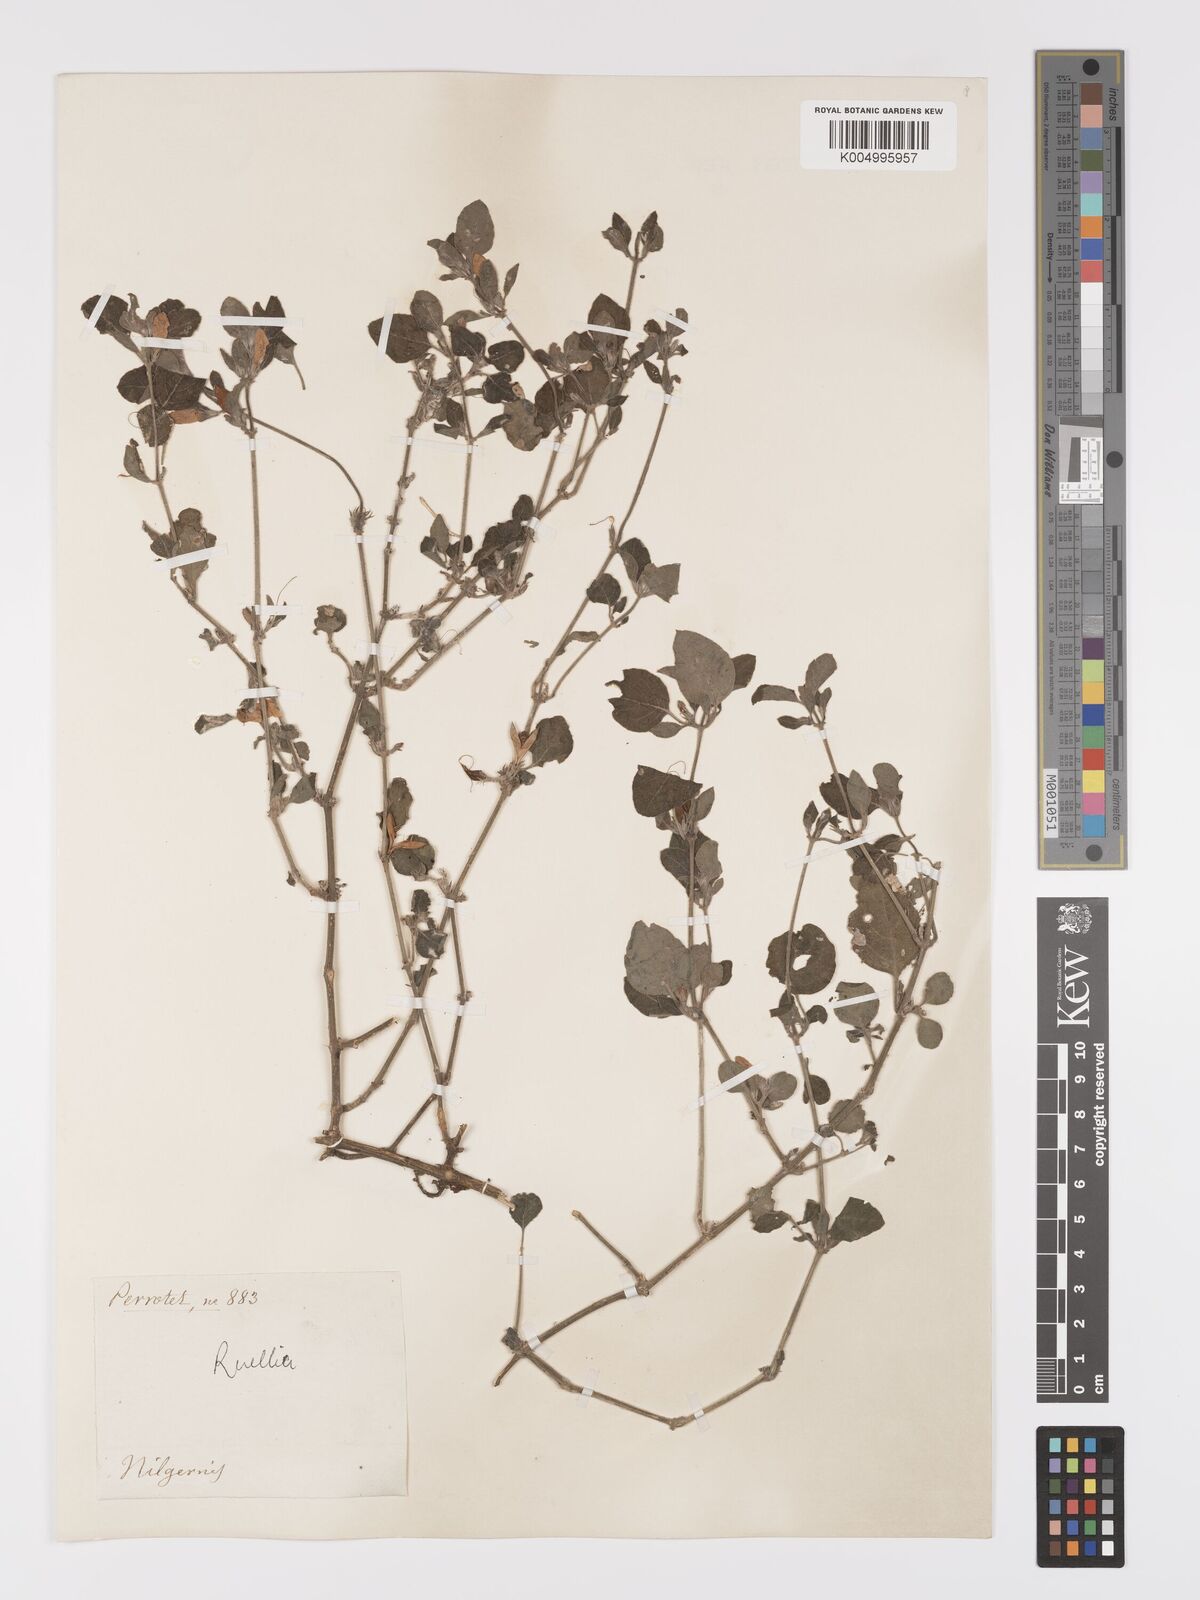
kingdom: Plantae
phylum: Tracheophyta
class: Magnoliopsida
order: Lamiales
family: Acanthaceae
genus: Ruellia
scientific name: Ruellia
